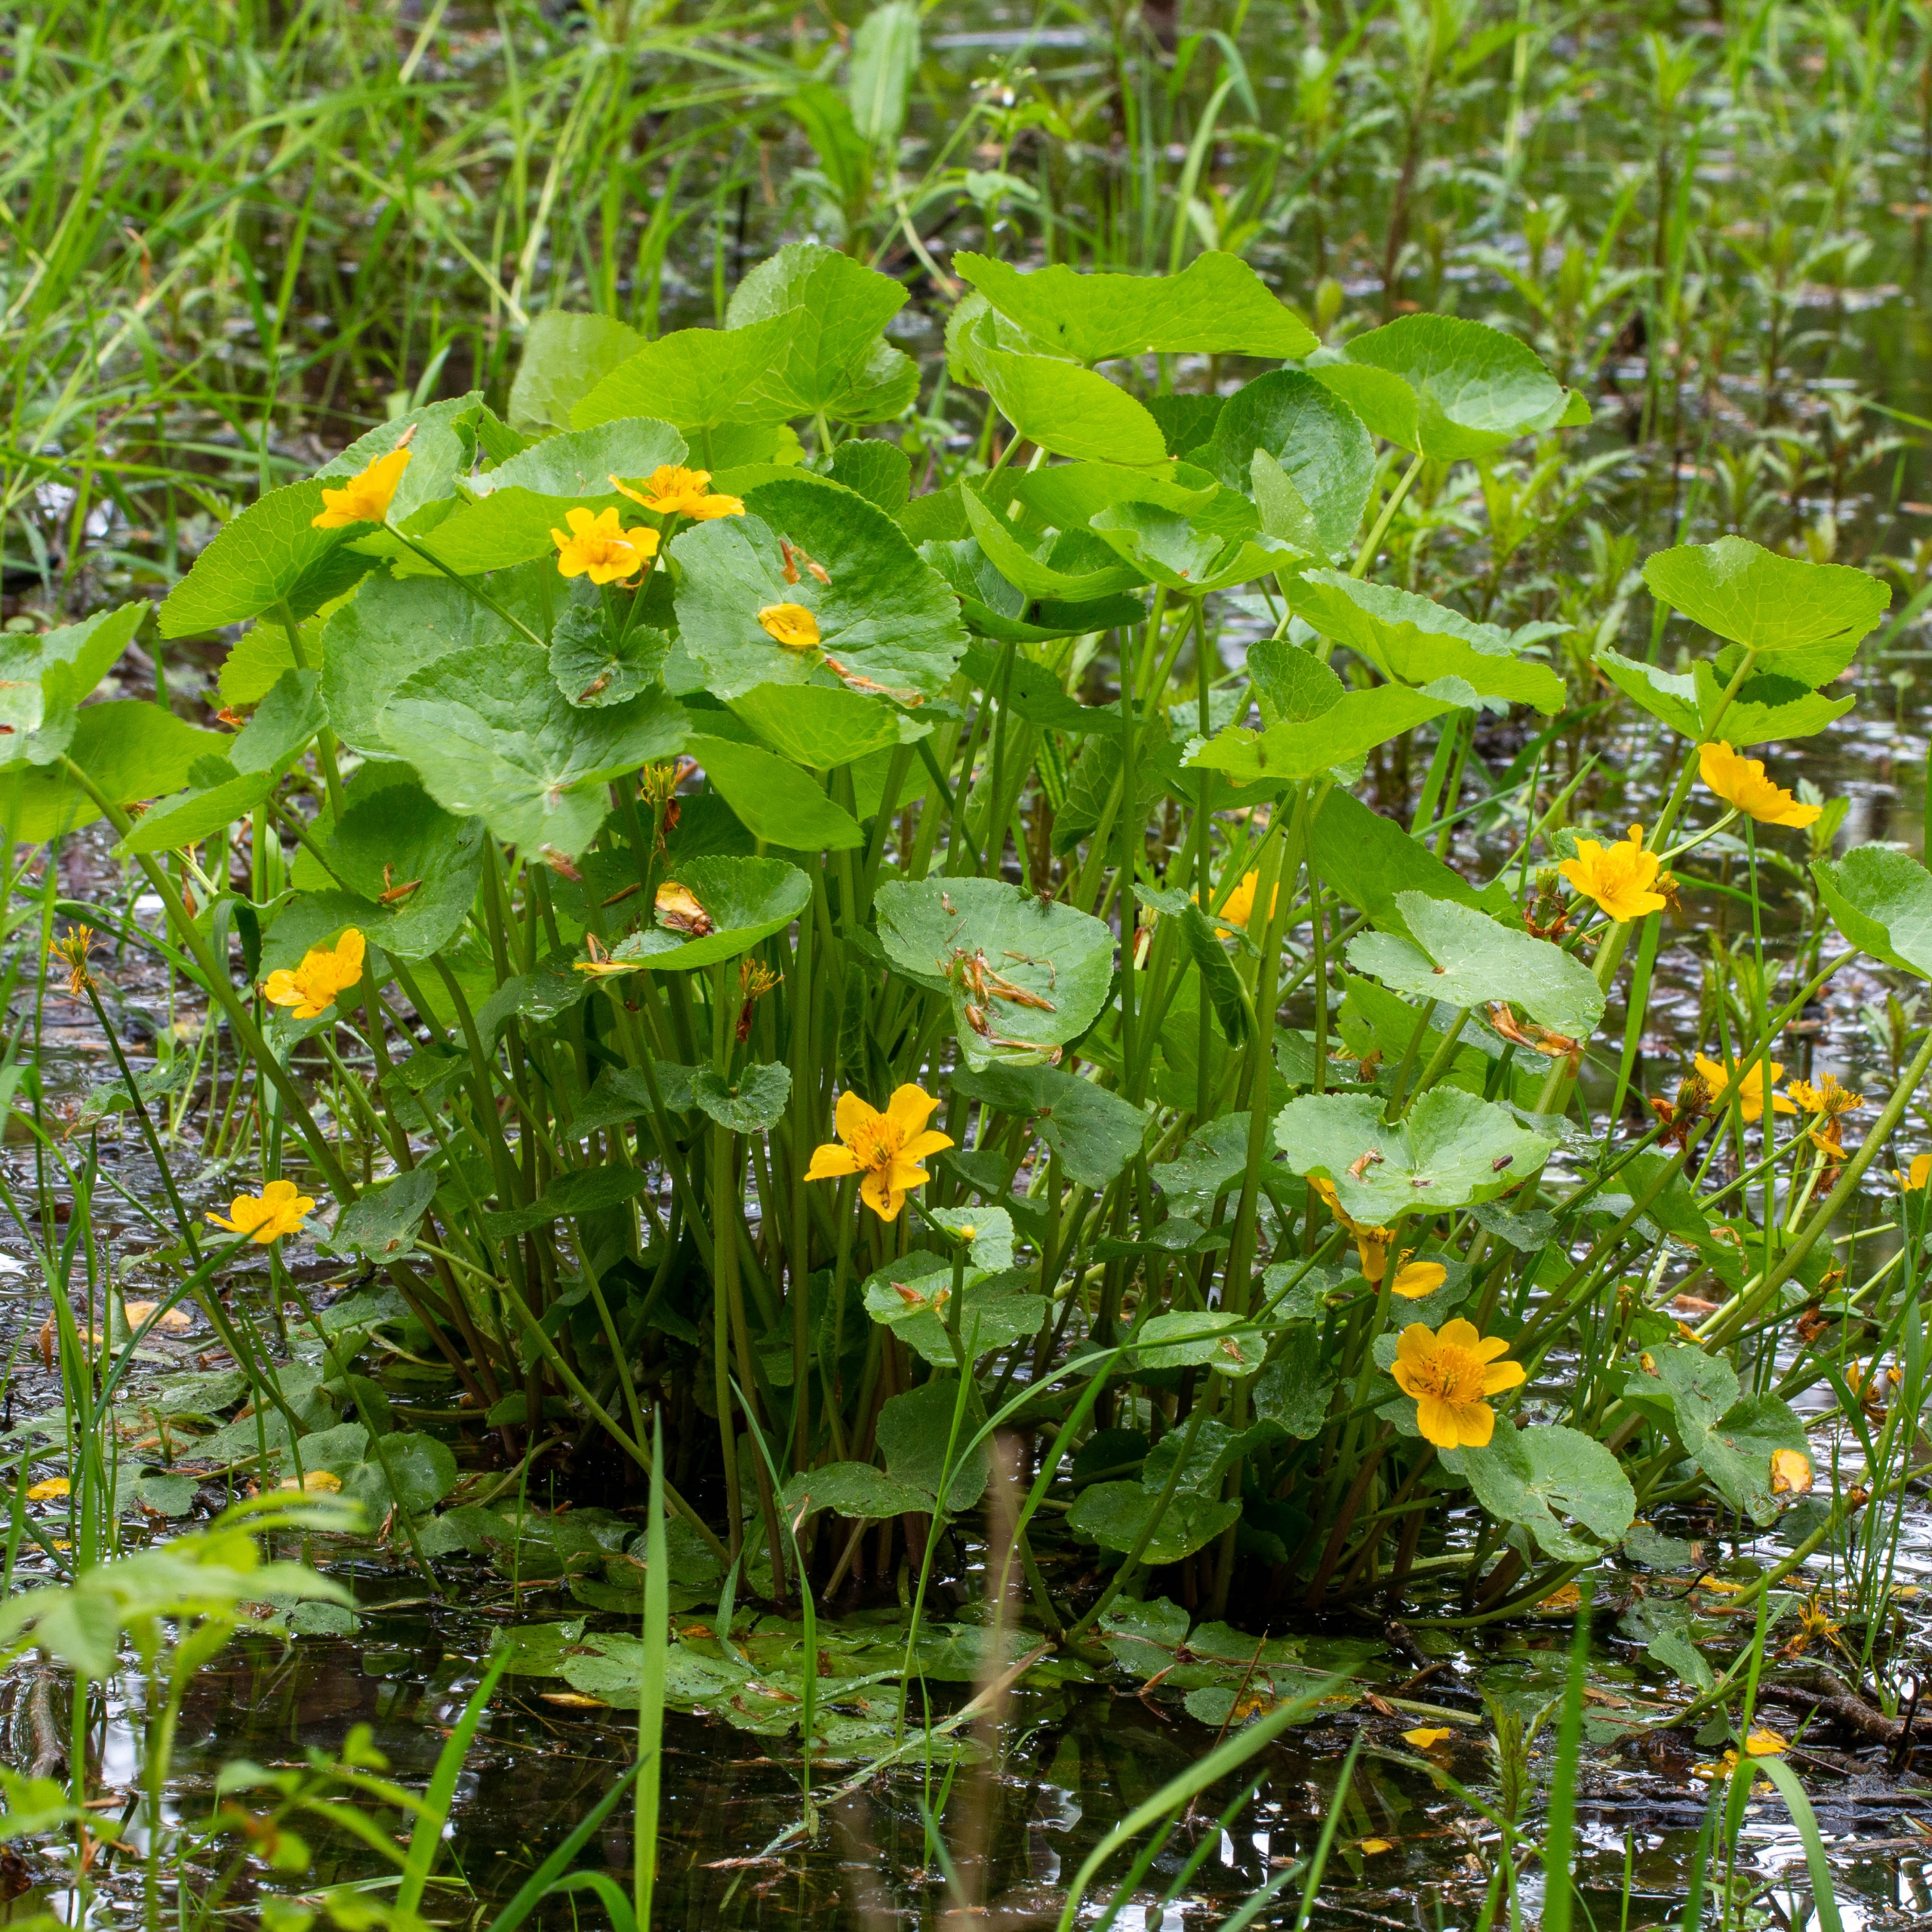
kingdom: Plantae
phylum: Tracheophyta
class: Magnoliopsida
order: Ranunculales
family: Ranunculaceae
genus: Caltha
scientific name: Caltha palustris
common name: Eng-kabbeleje
